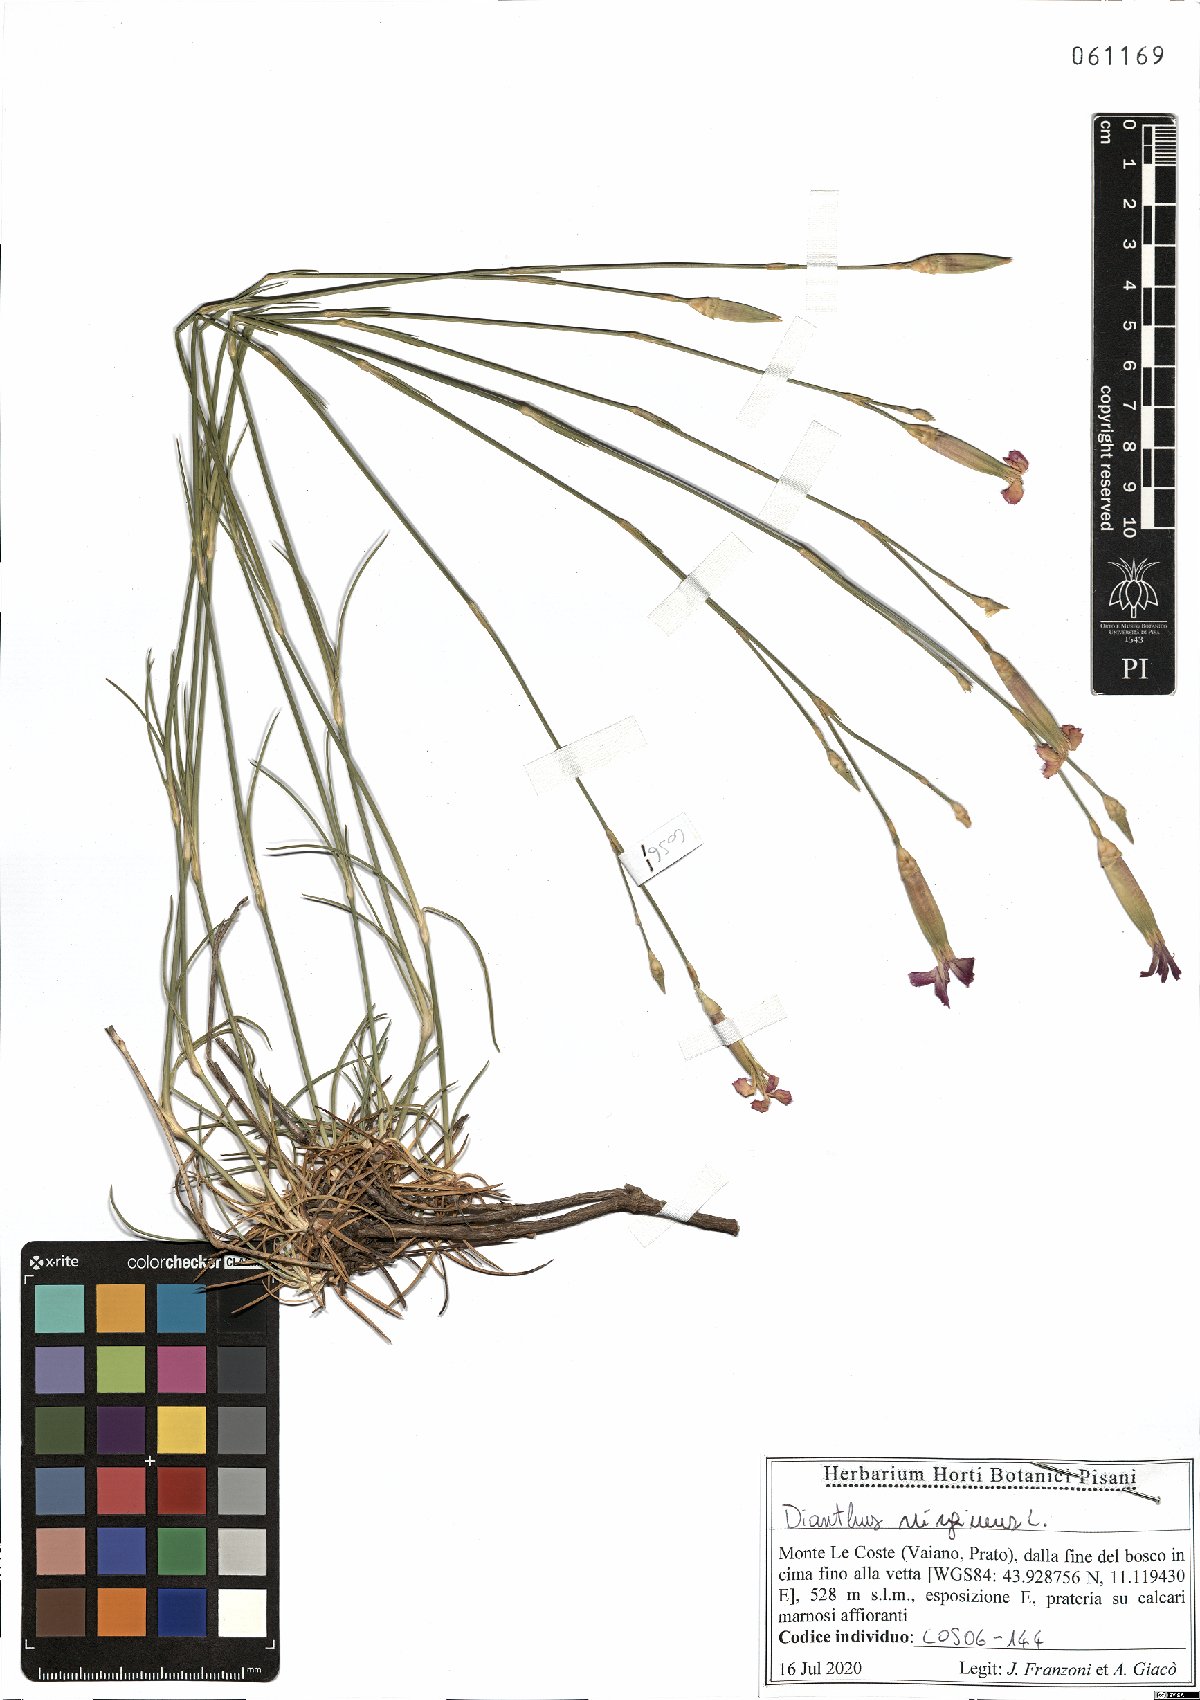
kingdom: Plantae
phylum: Tracheophyta
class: Magnoliopsida
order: Caryophyllales
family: Caryophyllaceae
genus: Dianthus
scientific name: Dianthus virgineus
